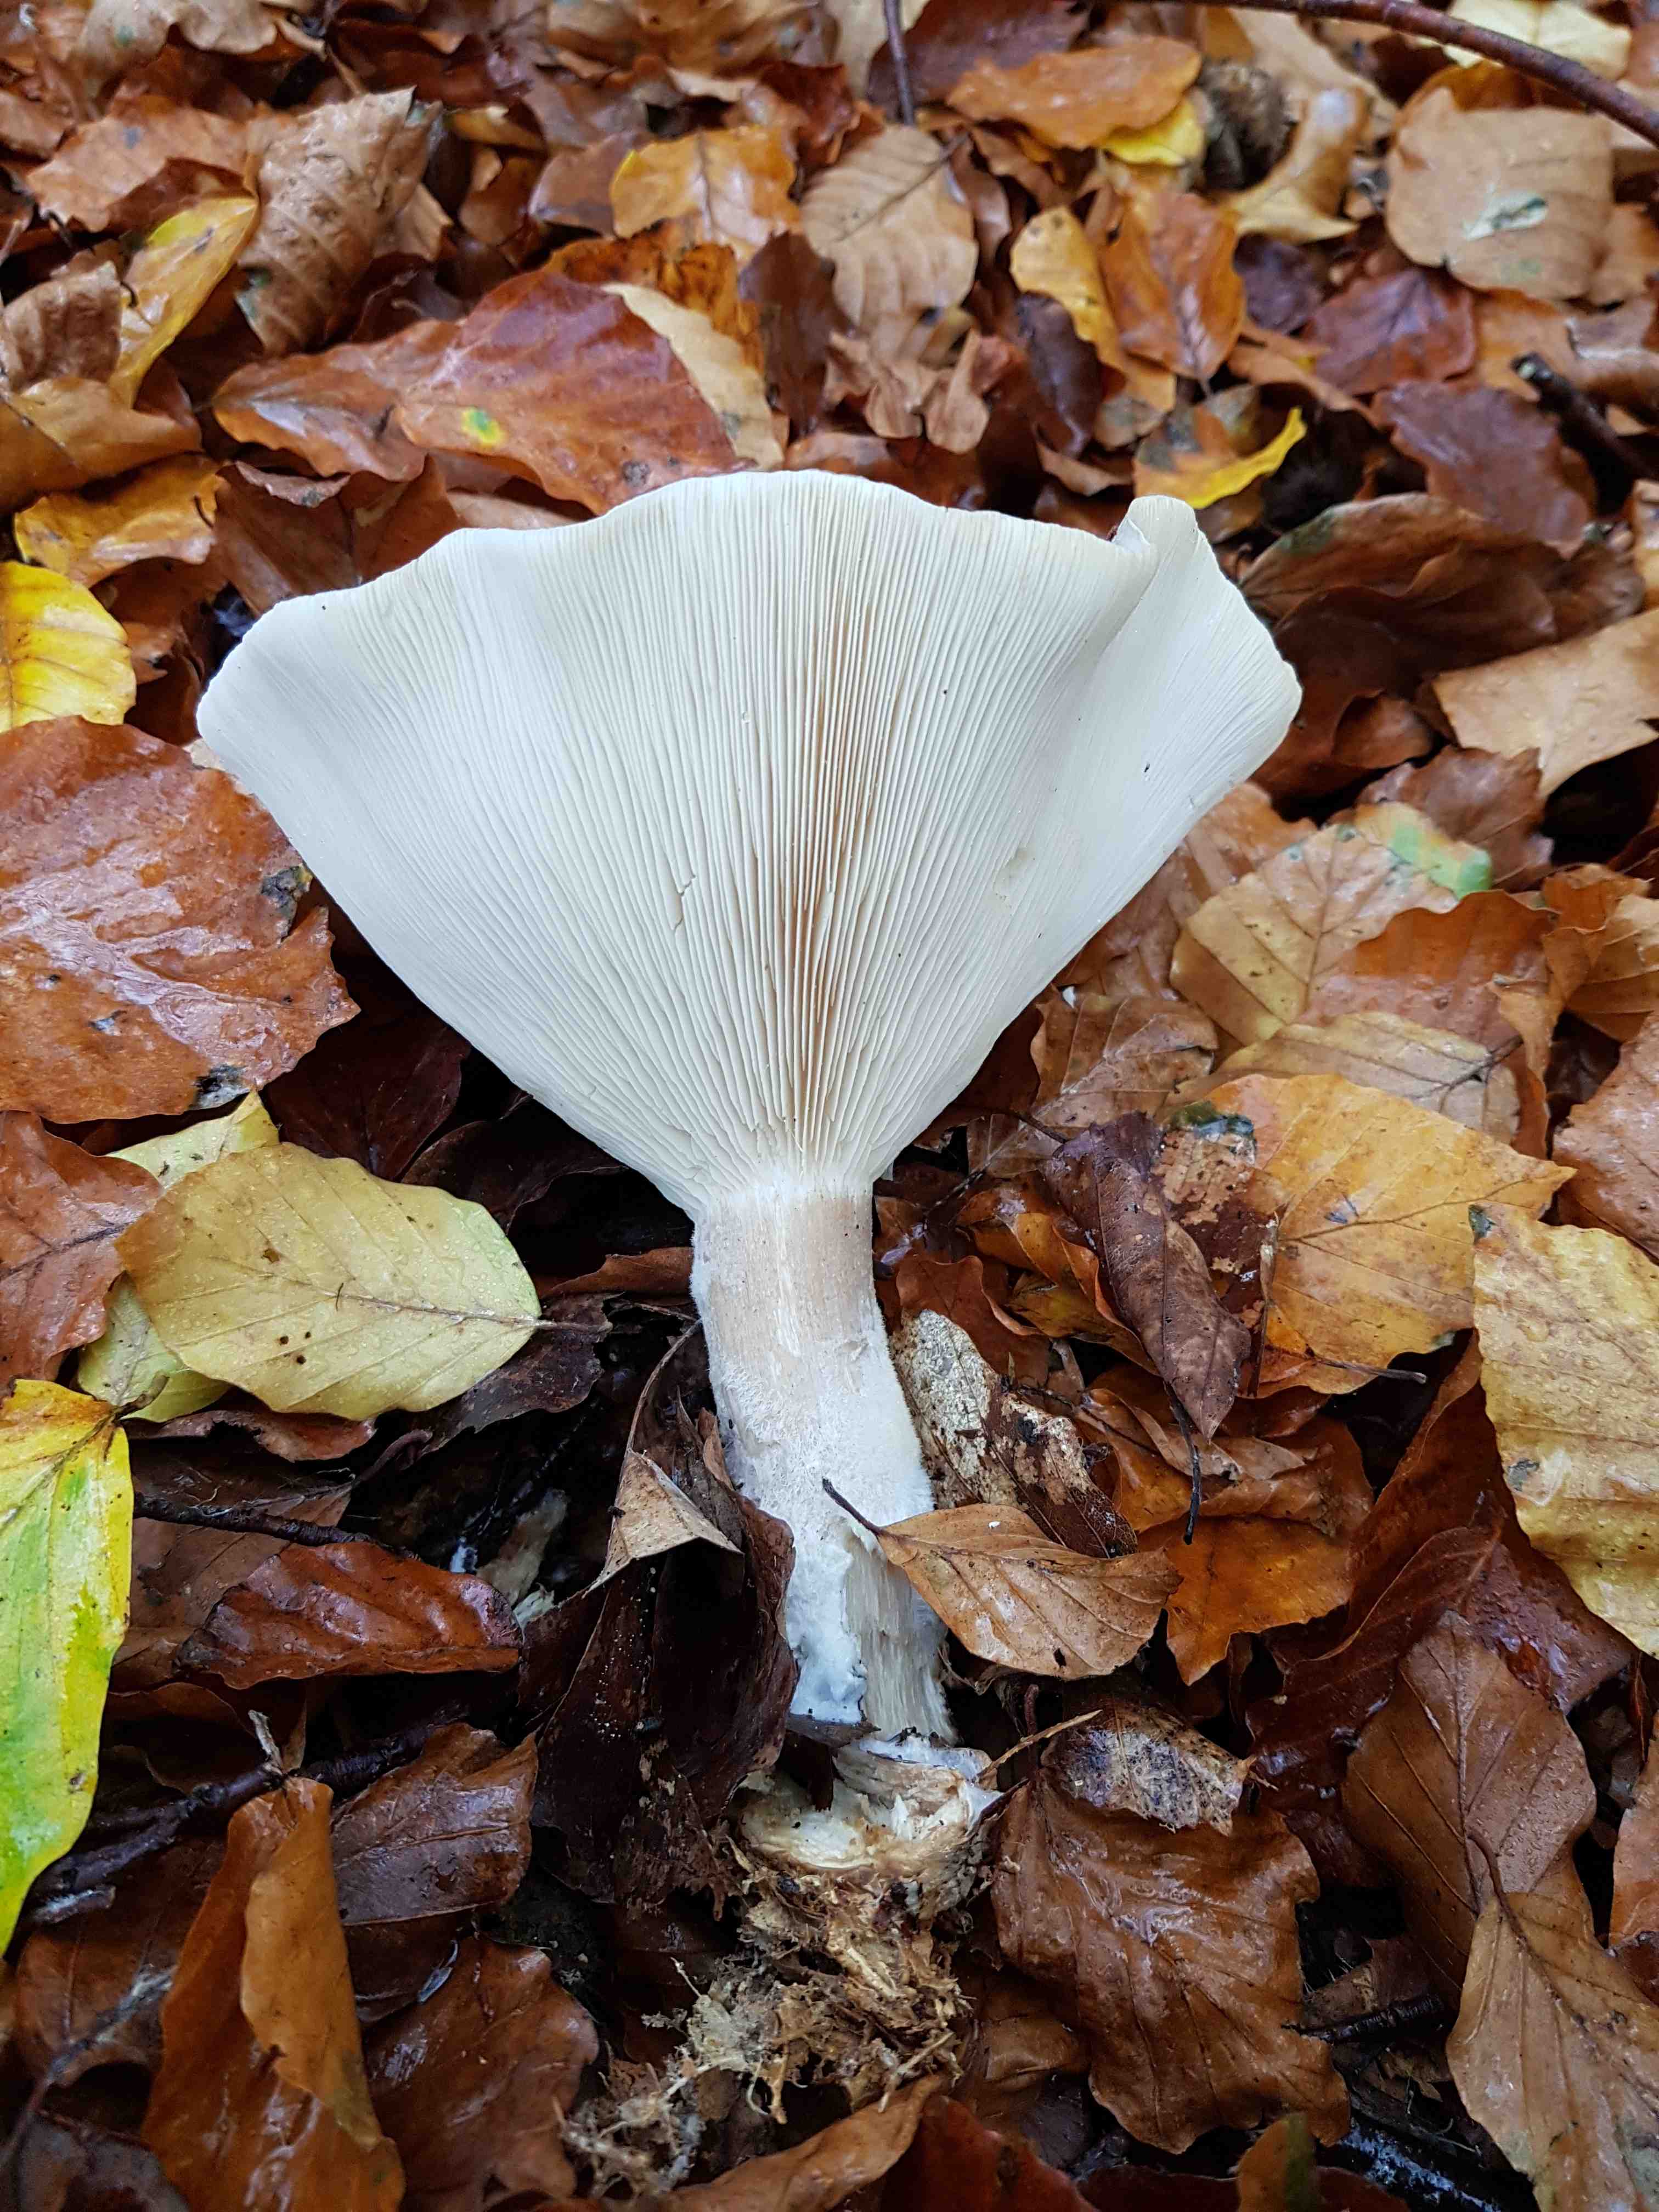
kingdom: Fungi
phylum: Basidiomycota
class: Agaricomycetes
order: Agaricales
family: Tricholomataceae
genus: Clitocybe
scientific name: Clitocybe nebularis
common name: tåge-tragthat
